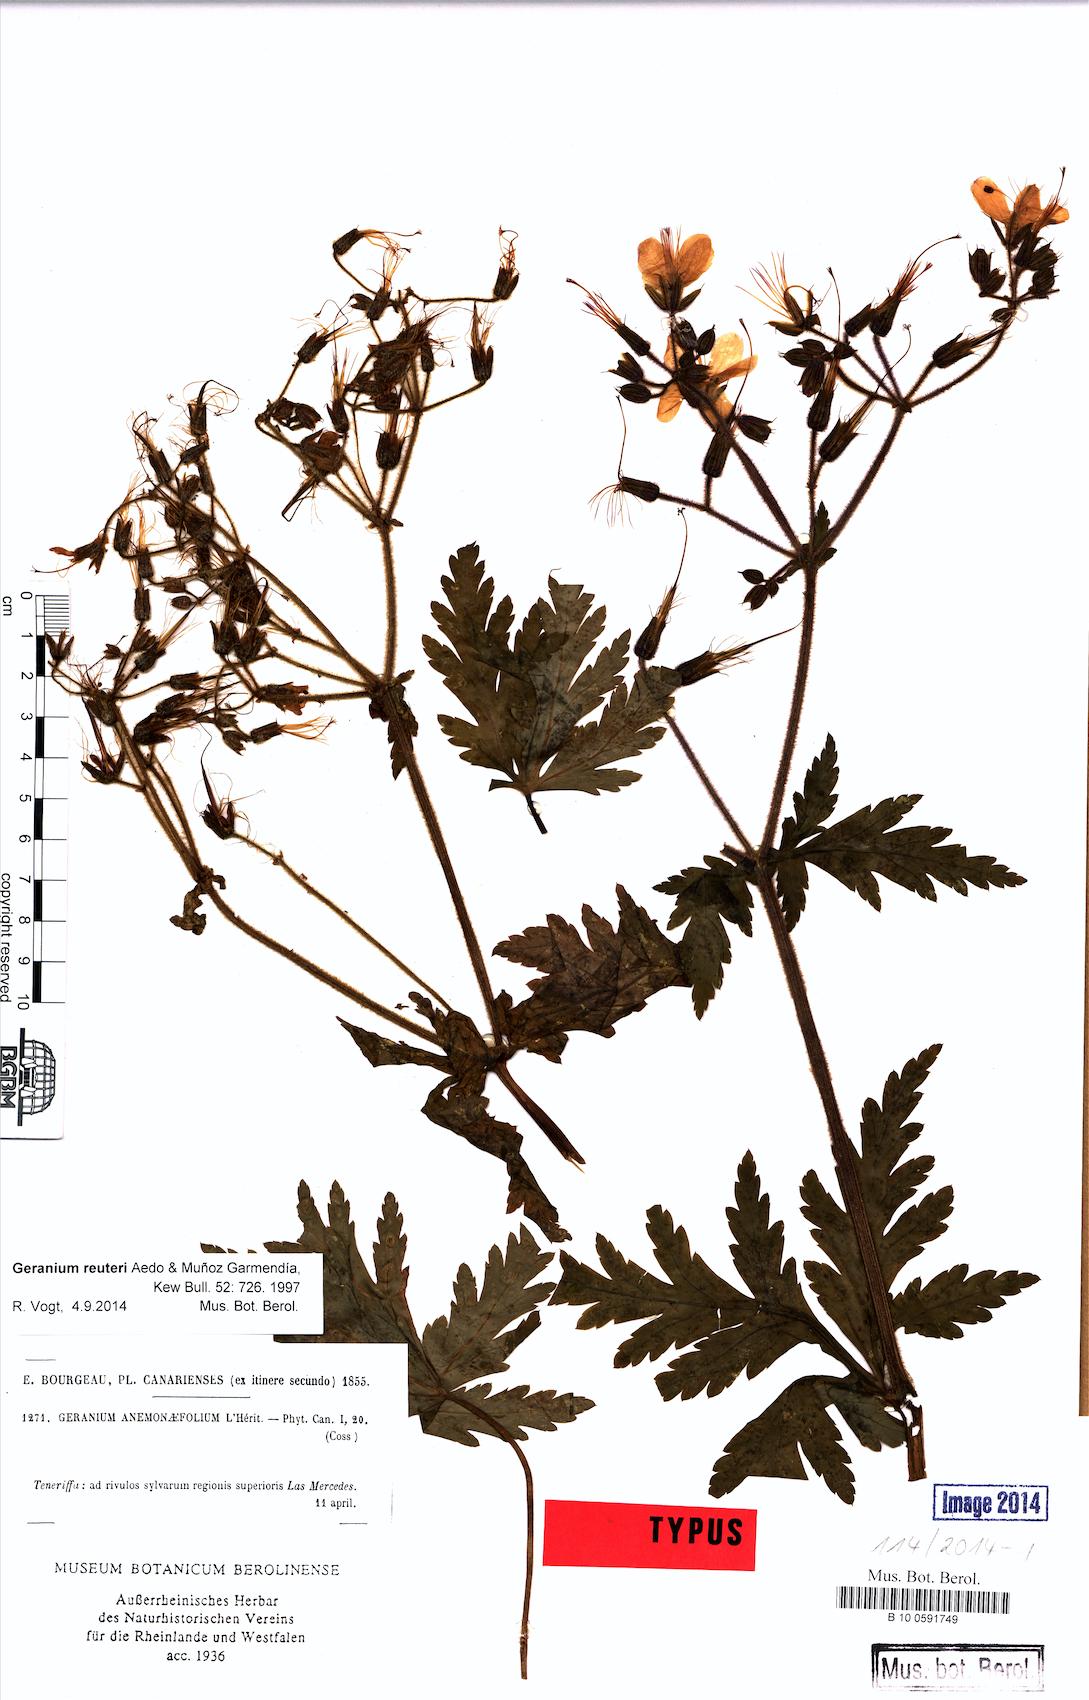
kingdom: Plantae
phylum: Tracheophyta
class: Magnoliopsida
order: Geraniales
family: Geraniaceae
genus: Geranium
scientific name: Geranium reuteri
